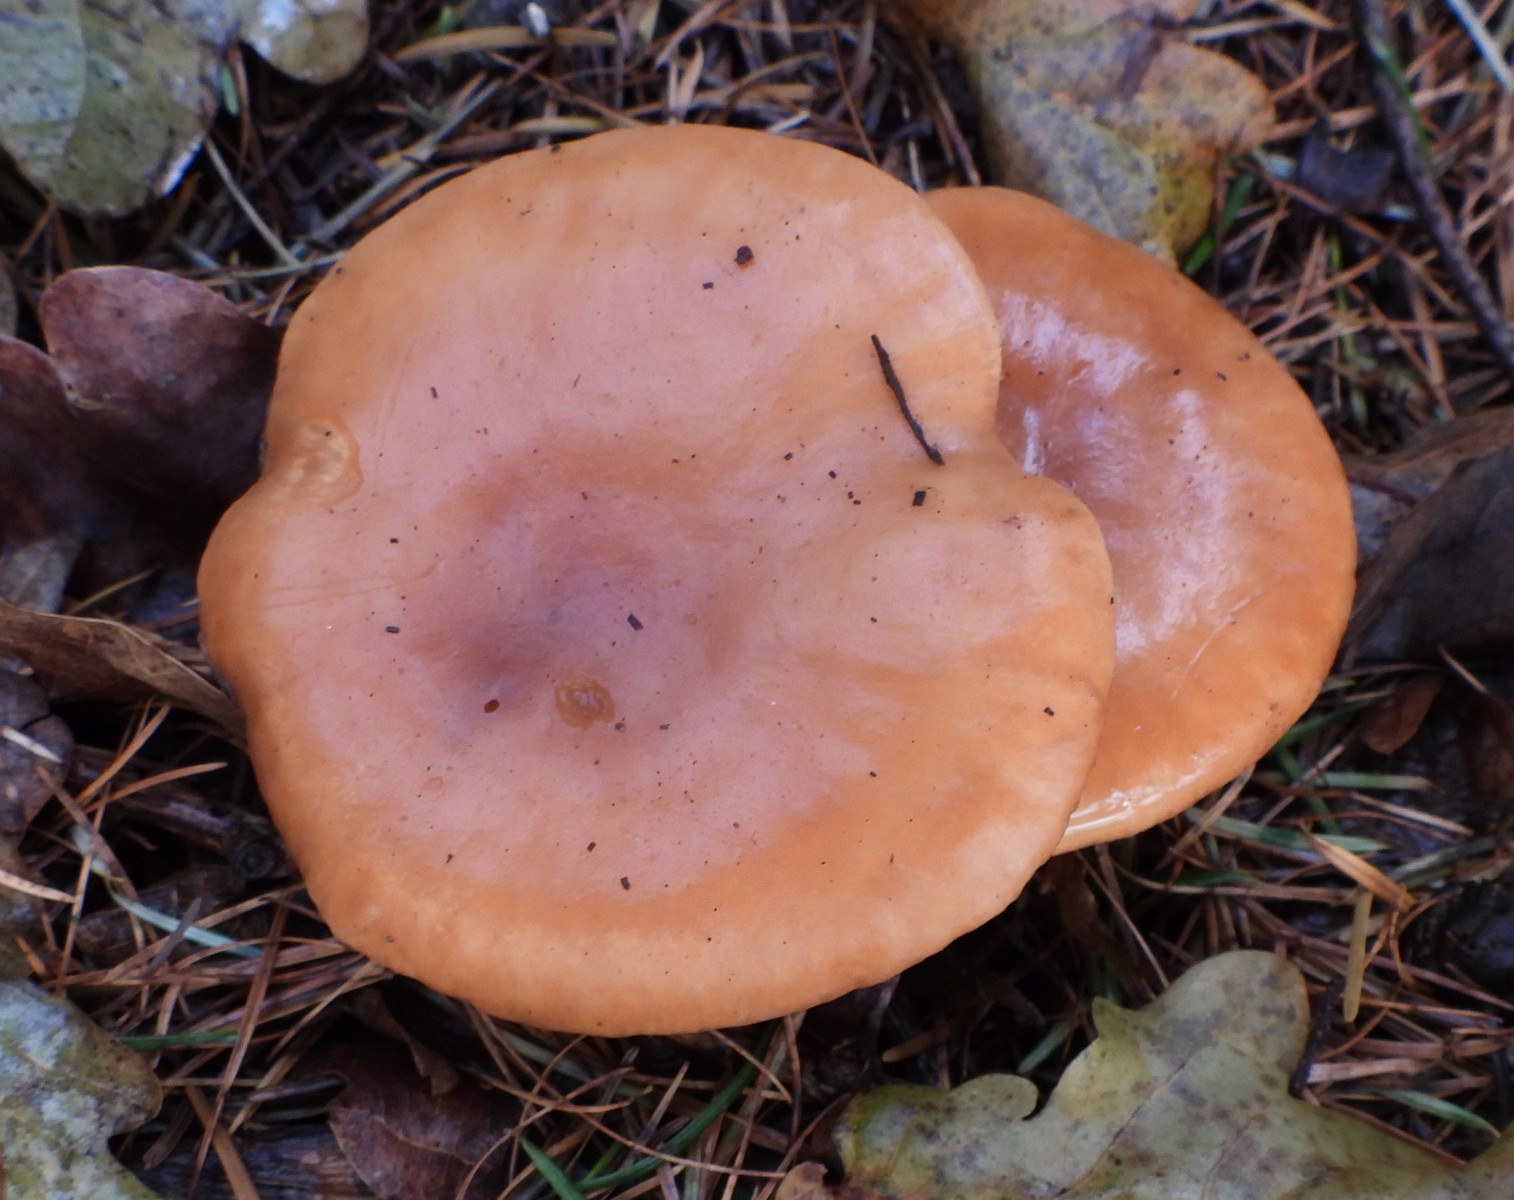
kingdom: Fungi
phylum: Basidiomycota
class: Agaricomycetes
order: Agaricales
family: Tricholomataceae
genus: Paralepista
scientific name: Paralepista flaccida
